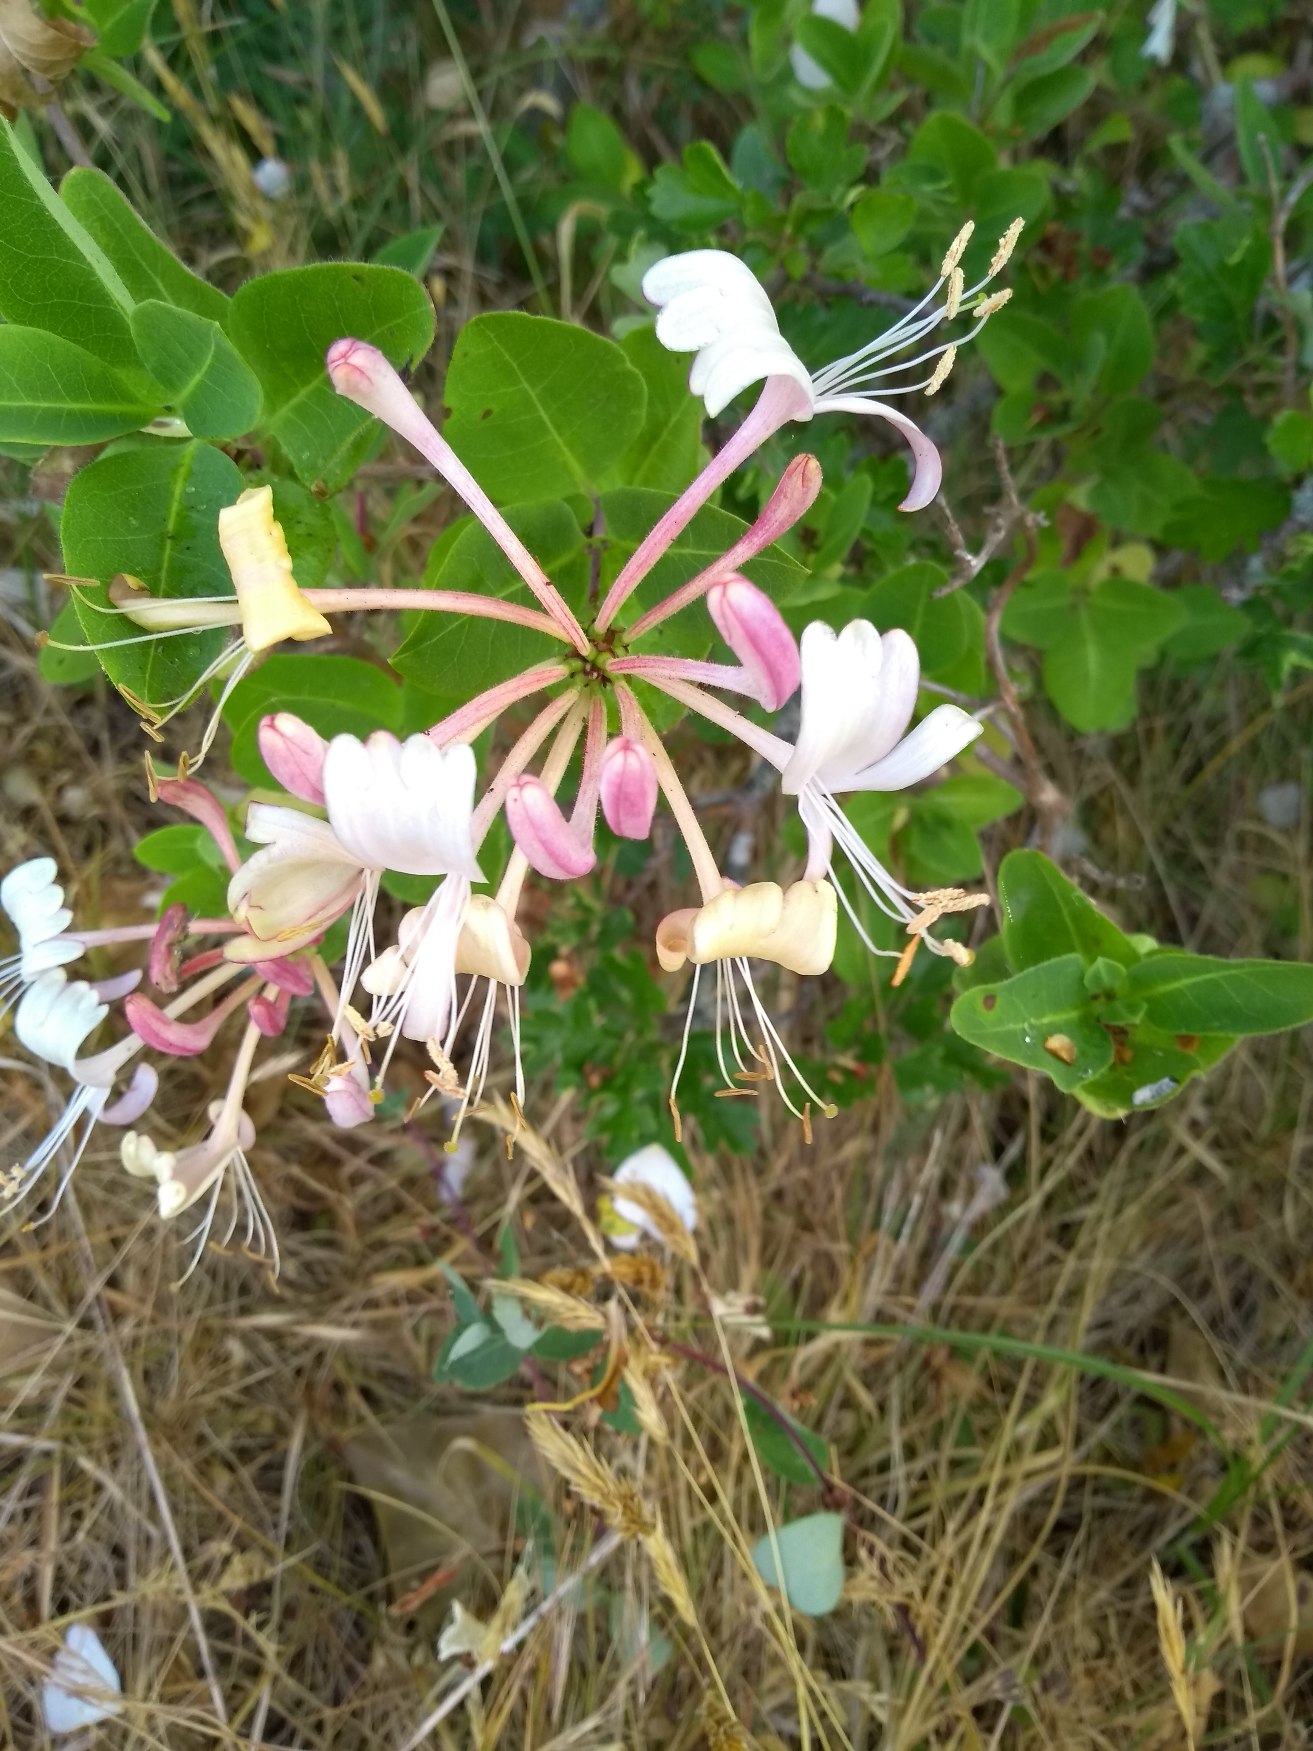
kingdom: Plantae
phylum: Tracheophyta
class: Magnoliopsida
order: Dipsacales
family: Caprifoliaceae
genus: Lonicera
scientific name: Lonicera periclymenum
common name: Almindelig gedeblad
